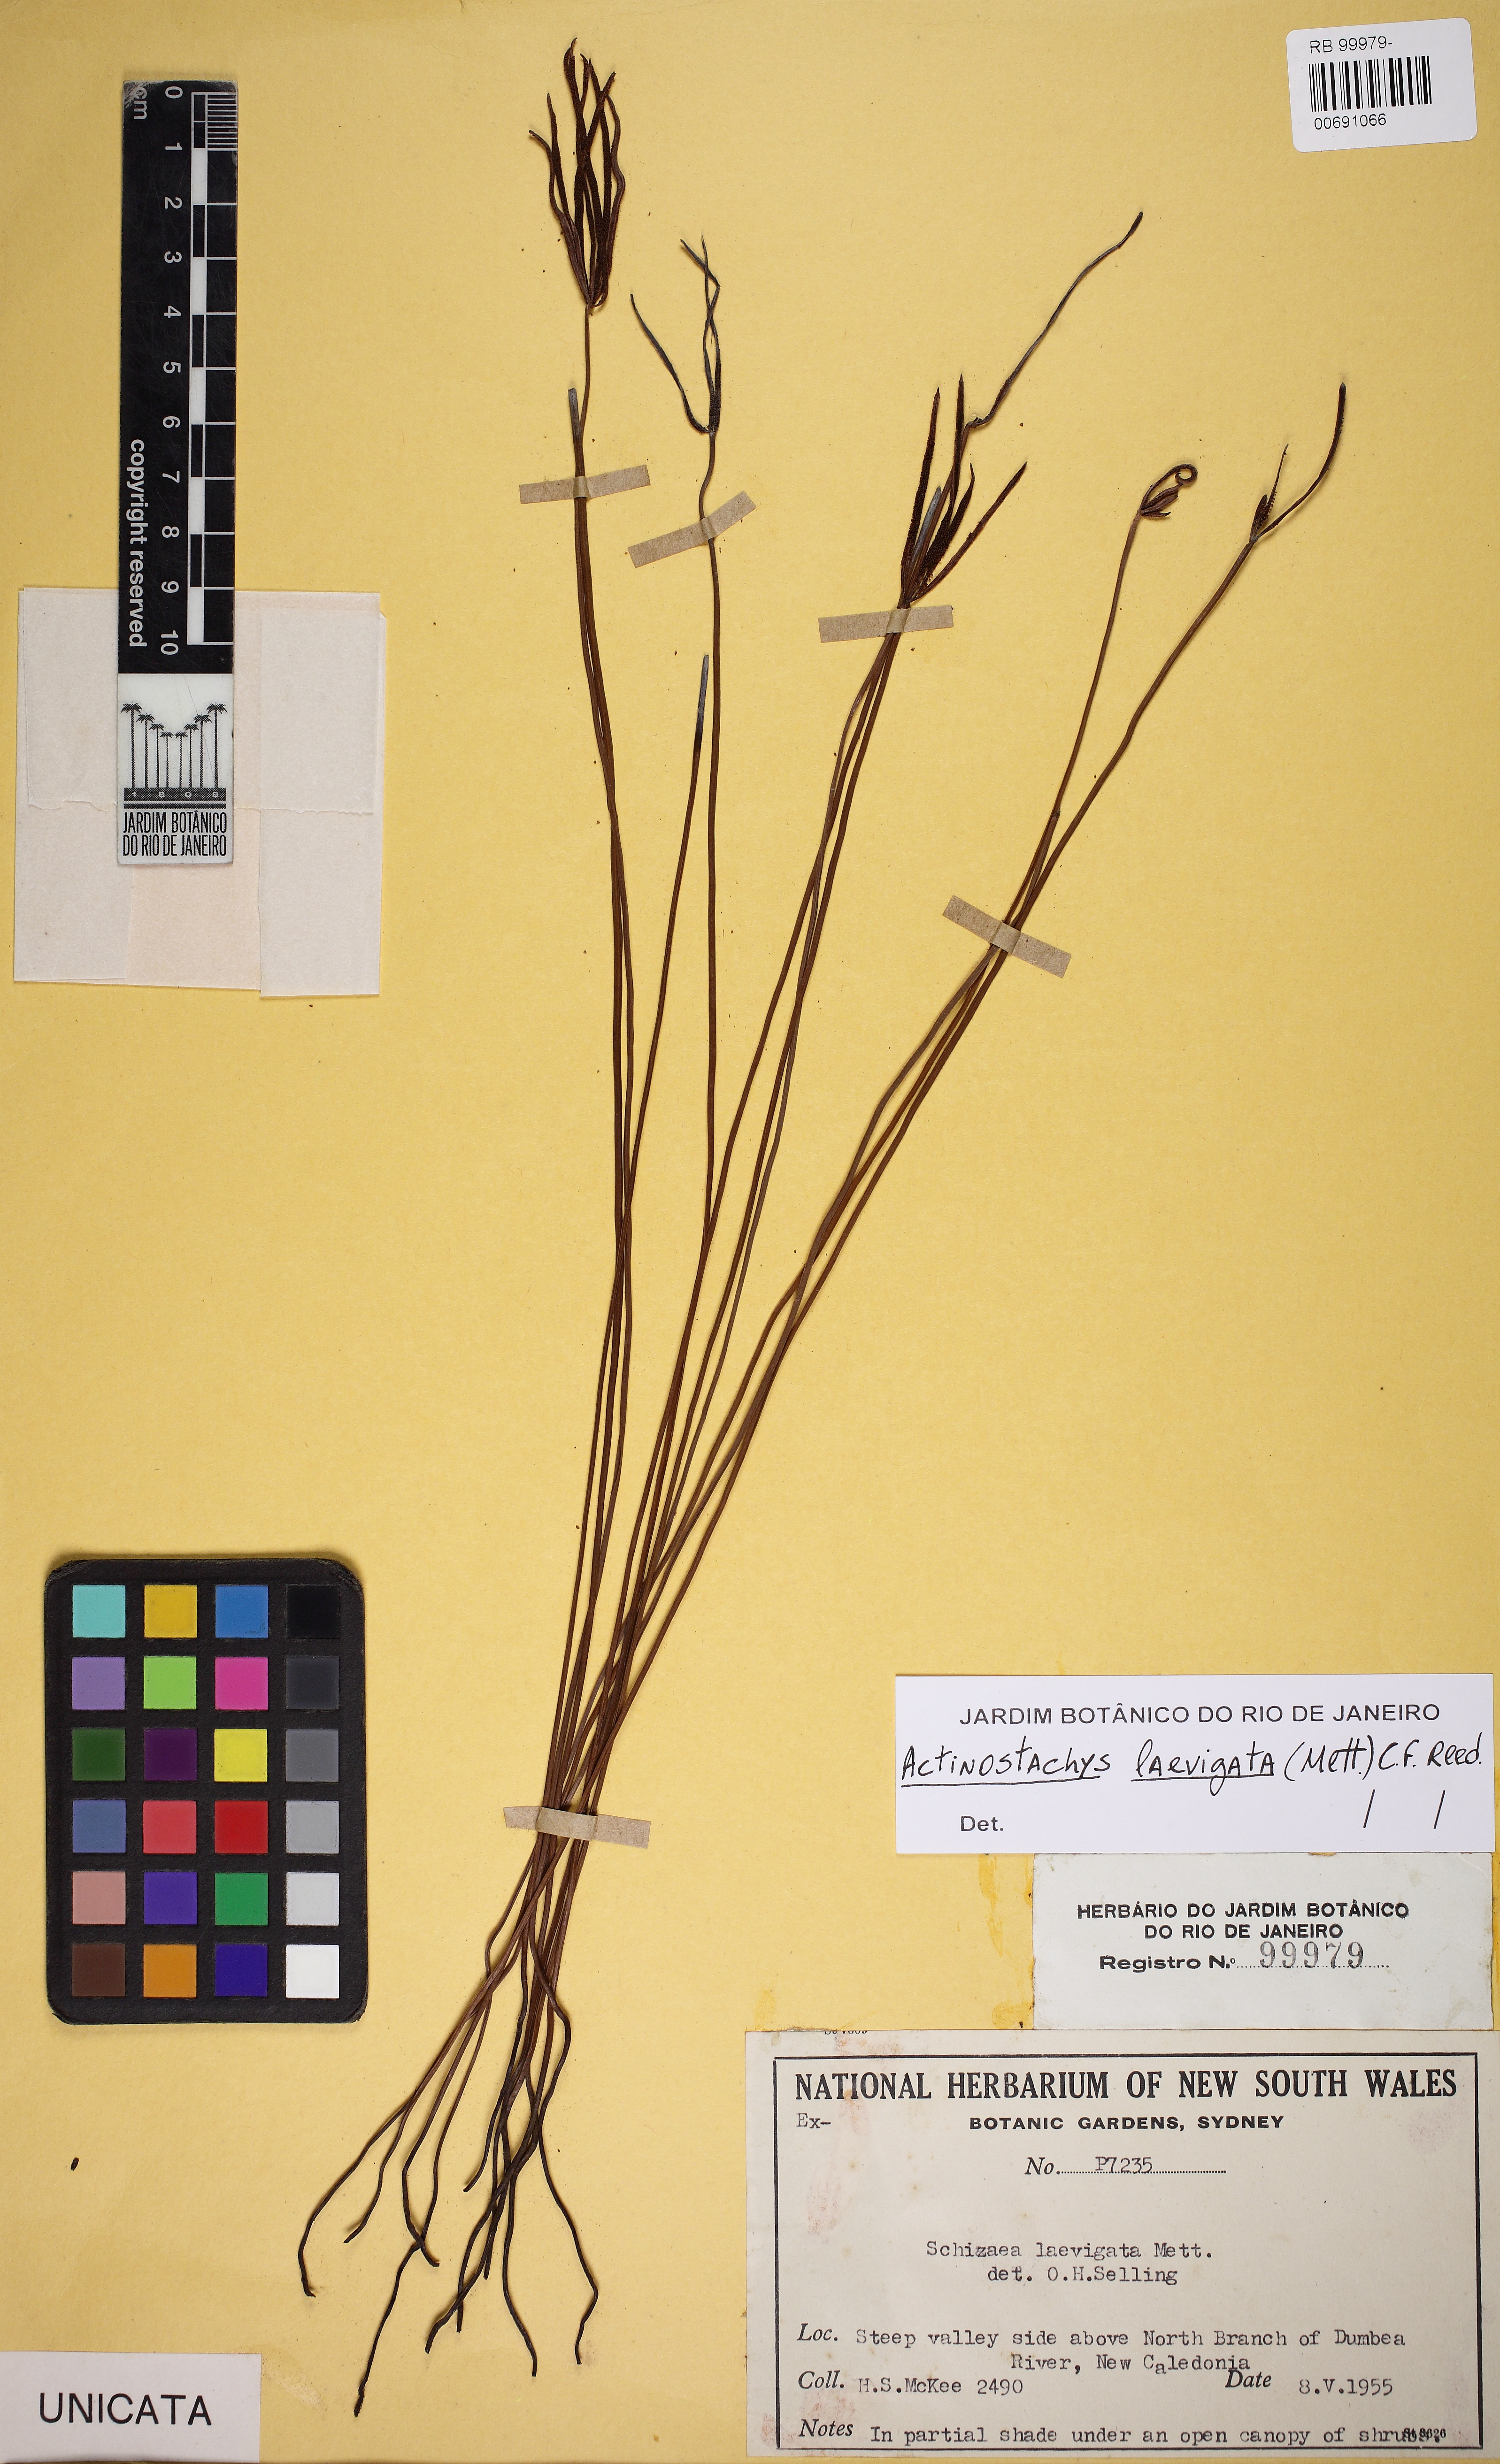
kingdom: Plantae
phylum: Tracheophyta
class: Polypodiopsida
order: Schizaeales
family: Schizaeaceae
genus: Actinostachys
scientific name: Actinostachys laevigata
